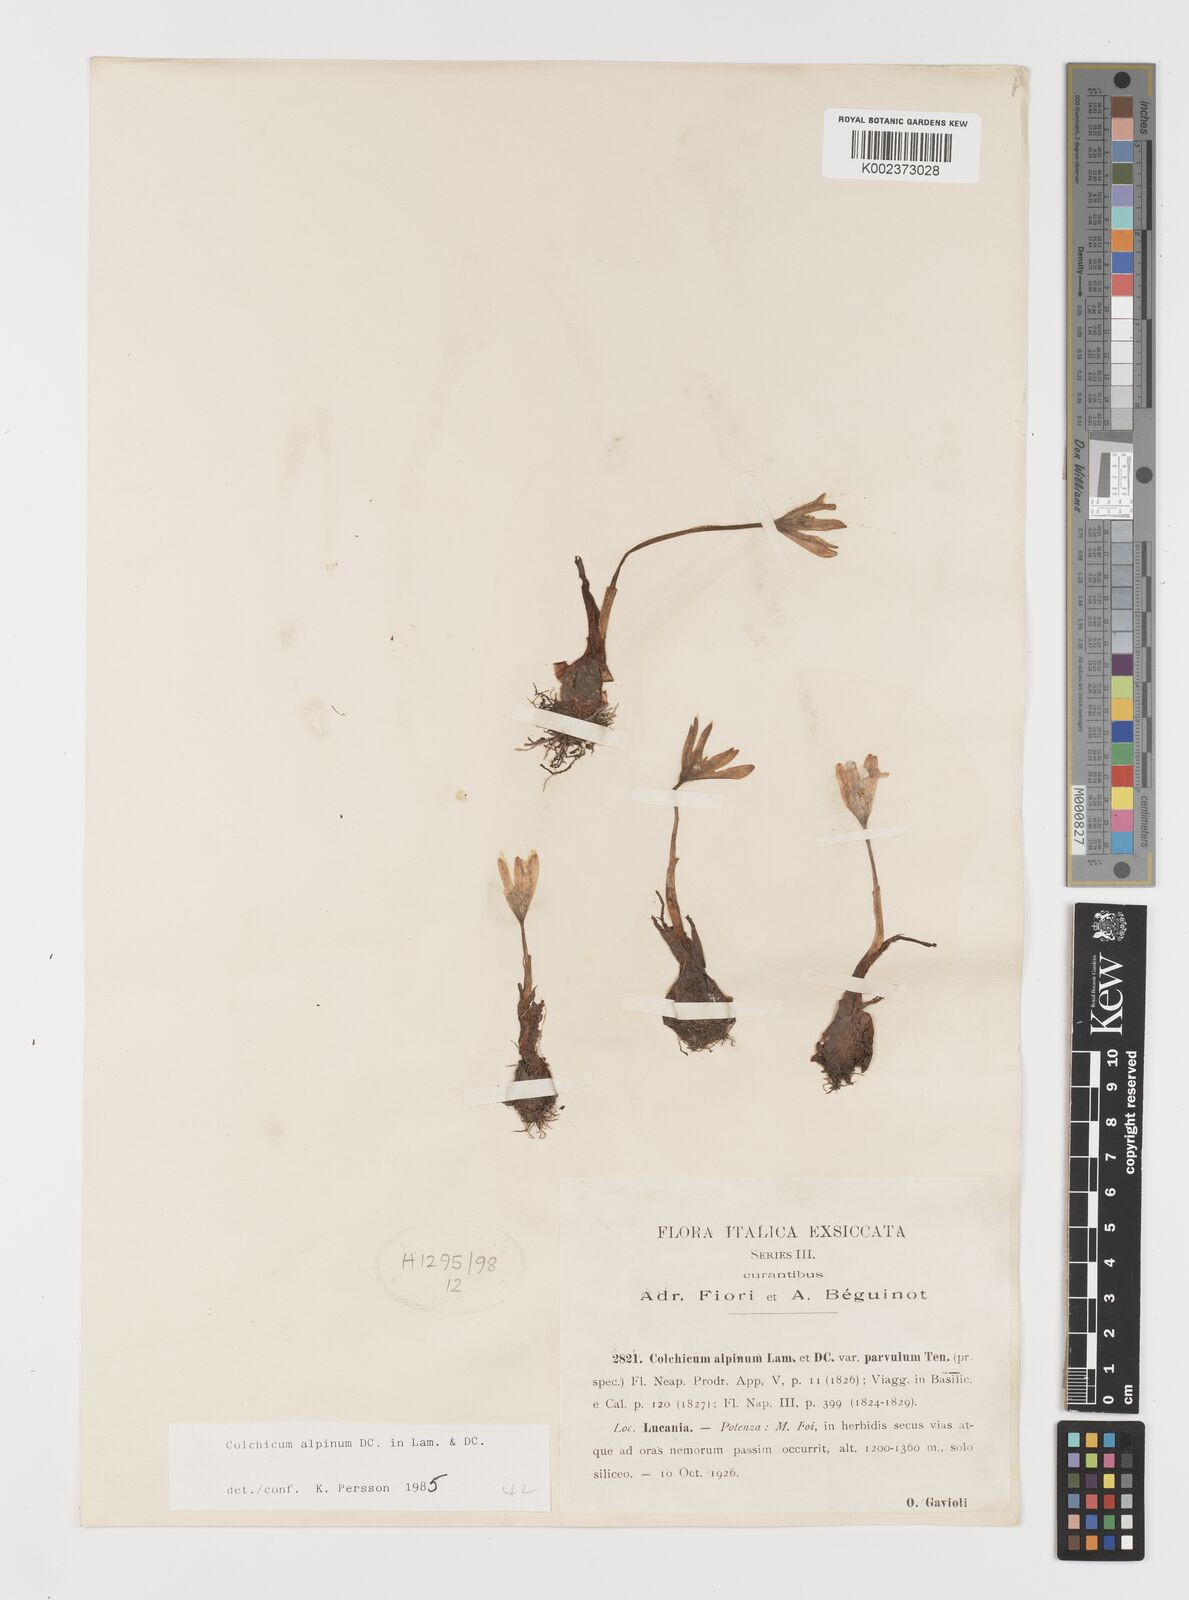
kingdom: Plantae
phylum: Tracheophyta
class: Liliopsida
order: Liliales
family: Colchicaceae
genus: Colchicum
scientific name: Colchicum alpinum
